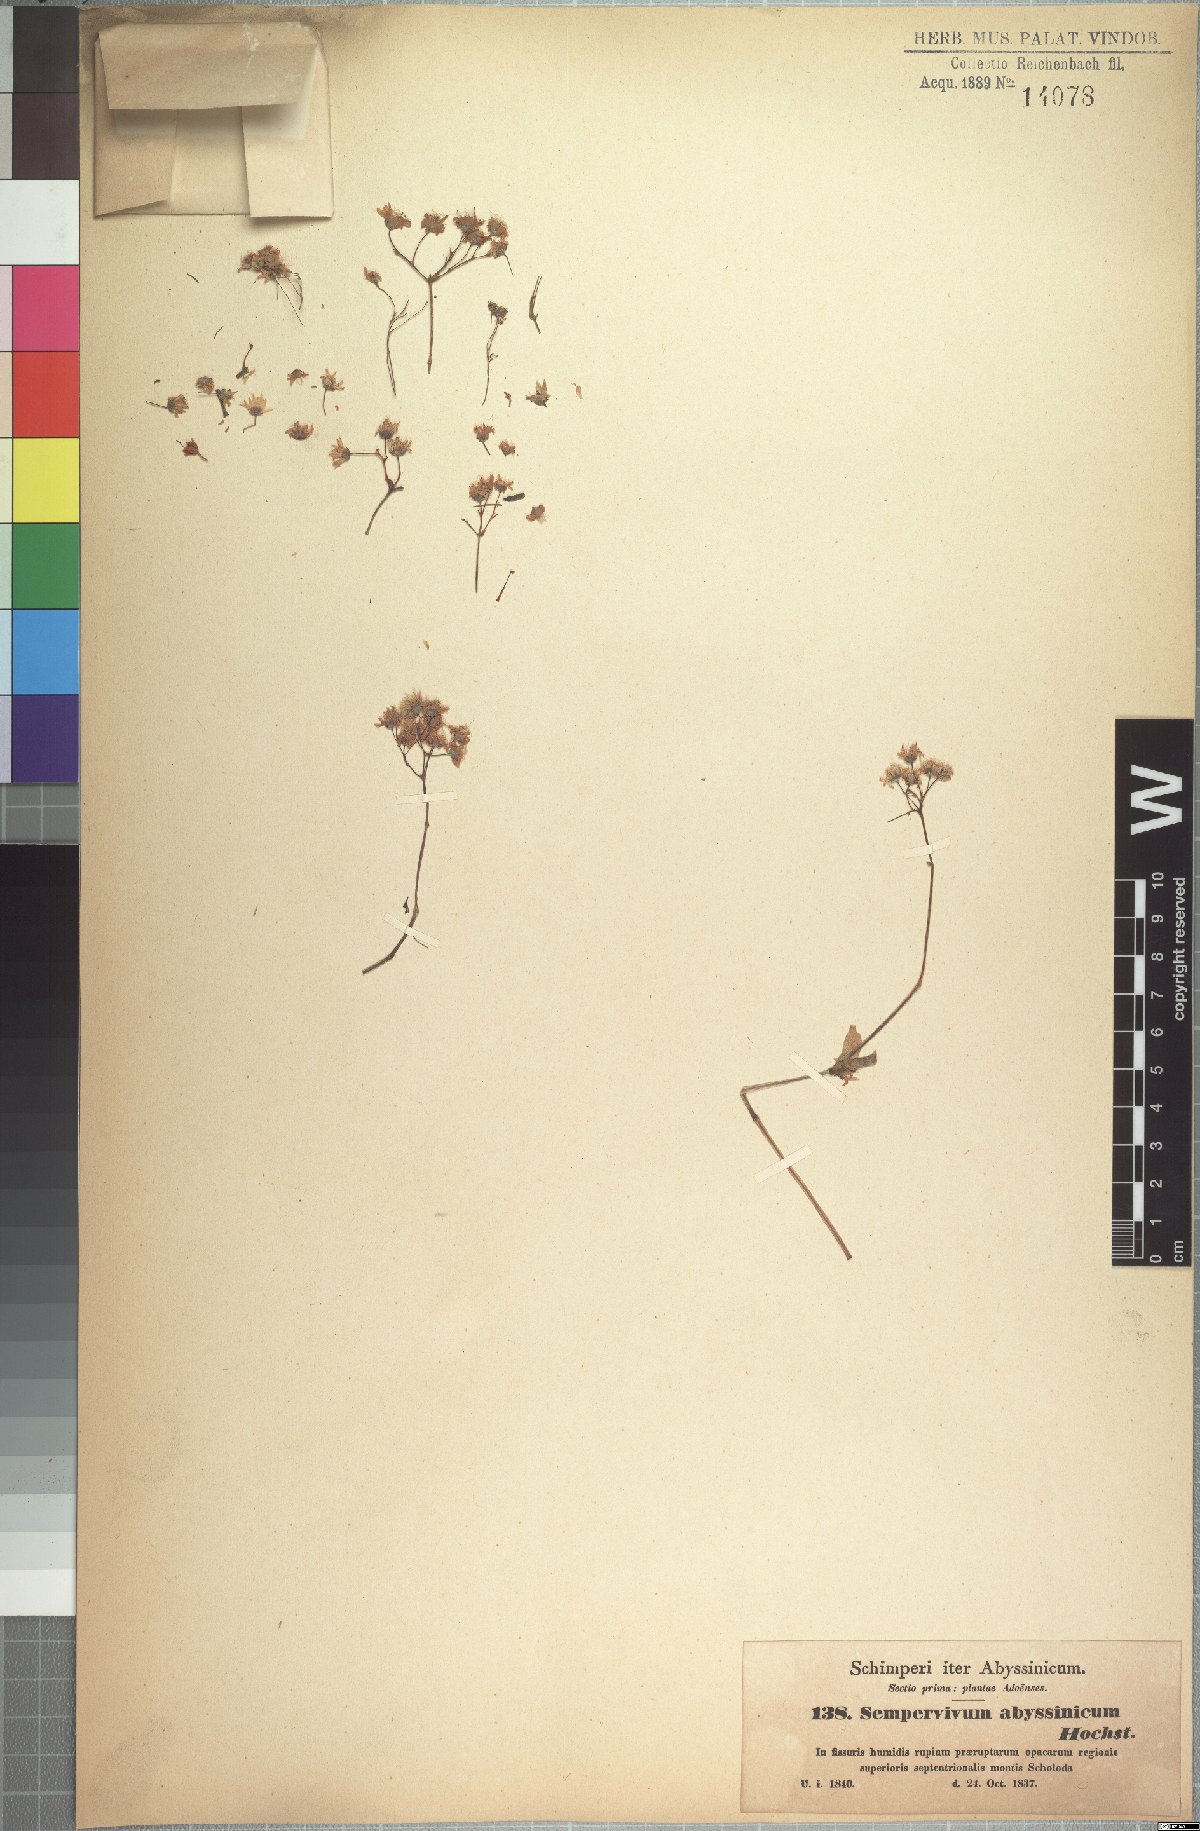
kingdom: Plantae
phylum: Tracheophyta
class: Magnoliopsida
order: Saxifragales
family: Crassulaceae
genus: Hypagophytum
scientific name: Hypagophytum abyssinicum
